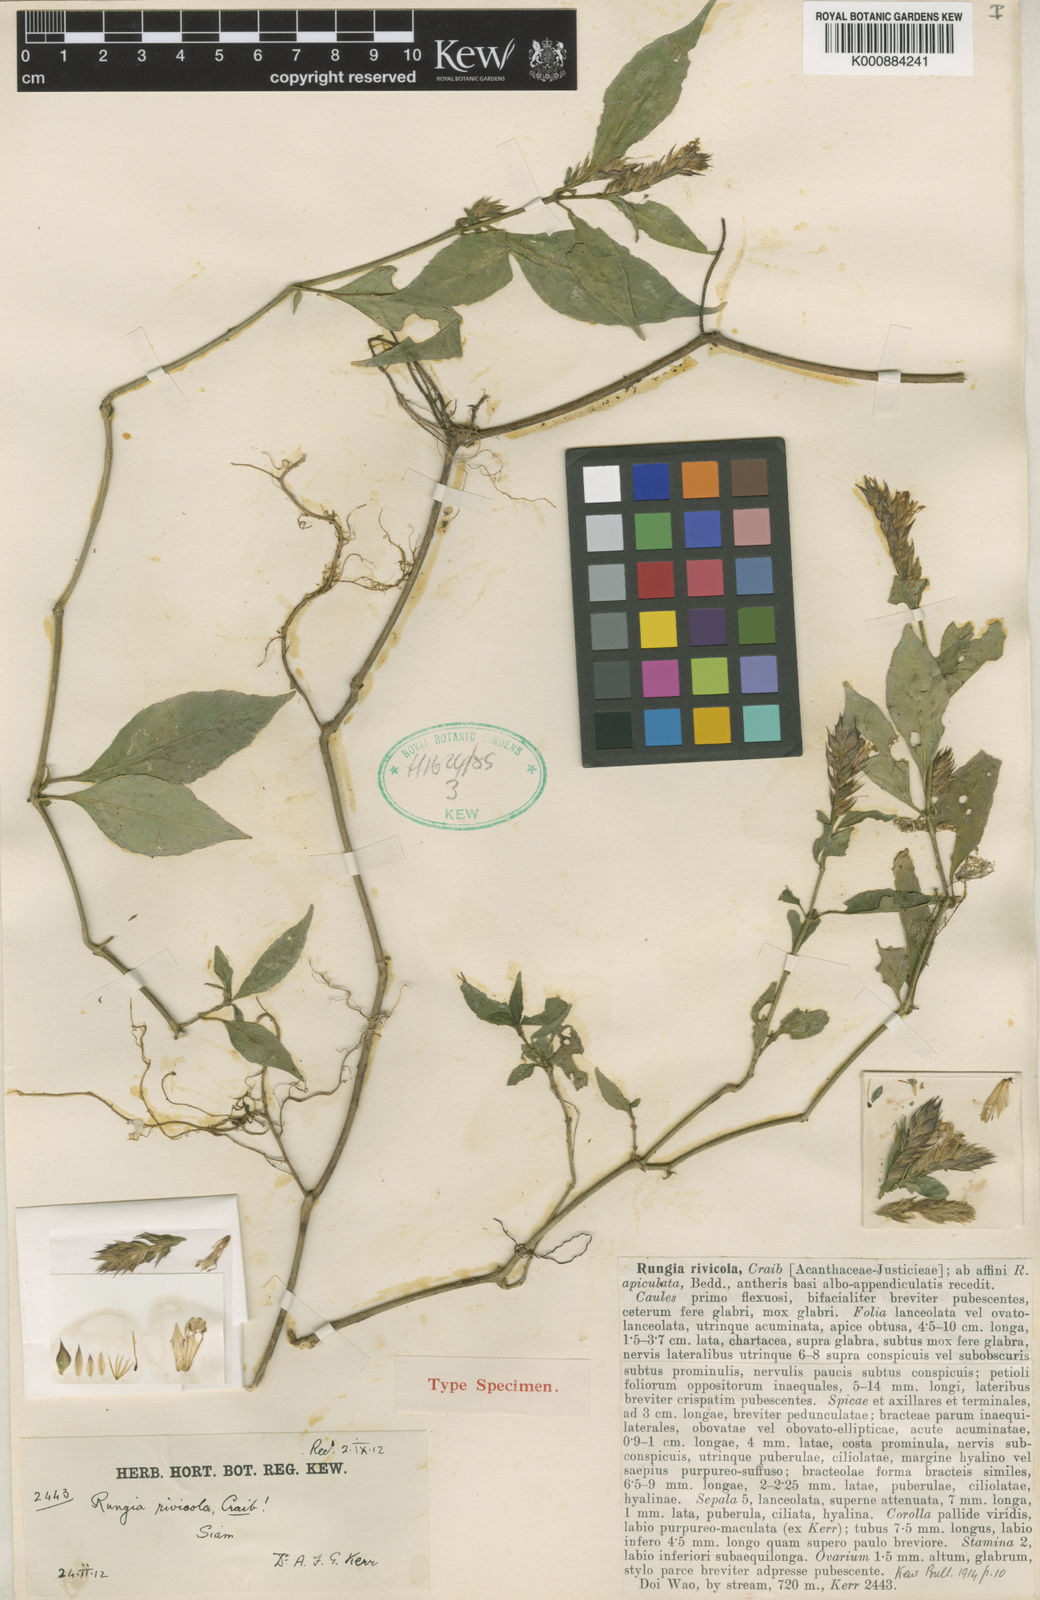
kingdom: Plantae
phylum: Tracheophyta
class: Magnoliopsida
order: Lamiales
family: Acanthaceae
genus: Justicia
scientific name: Justicia
